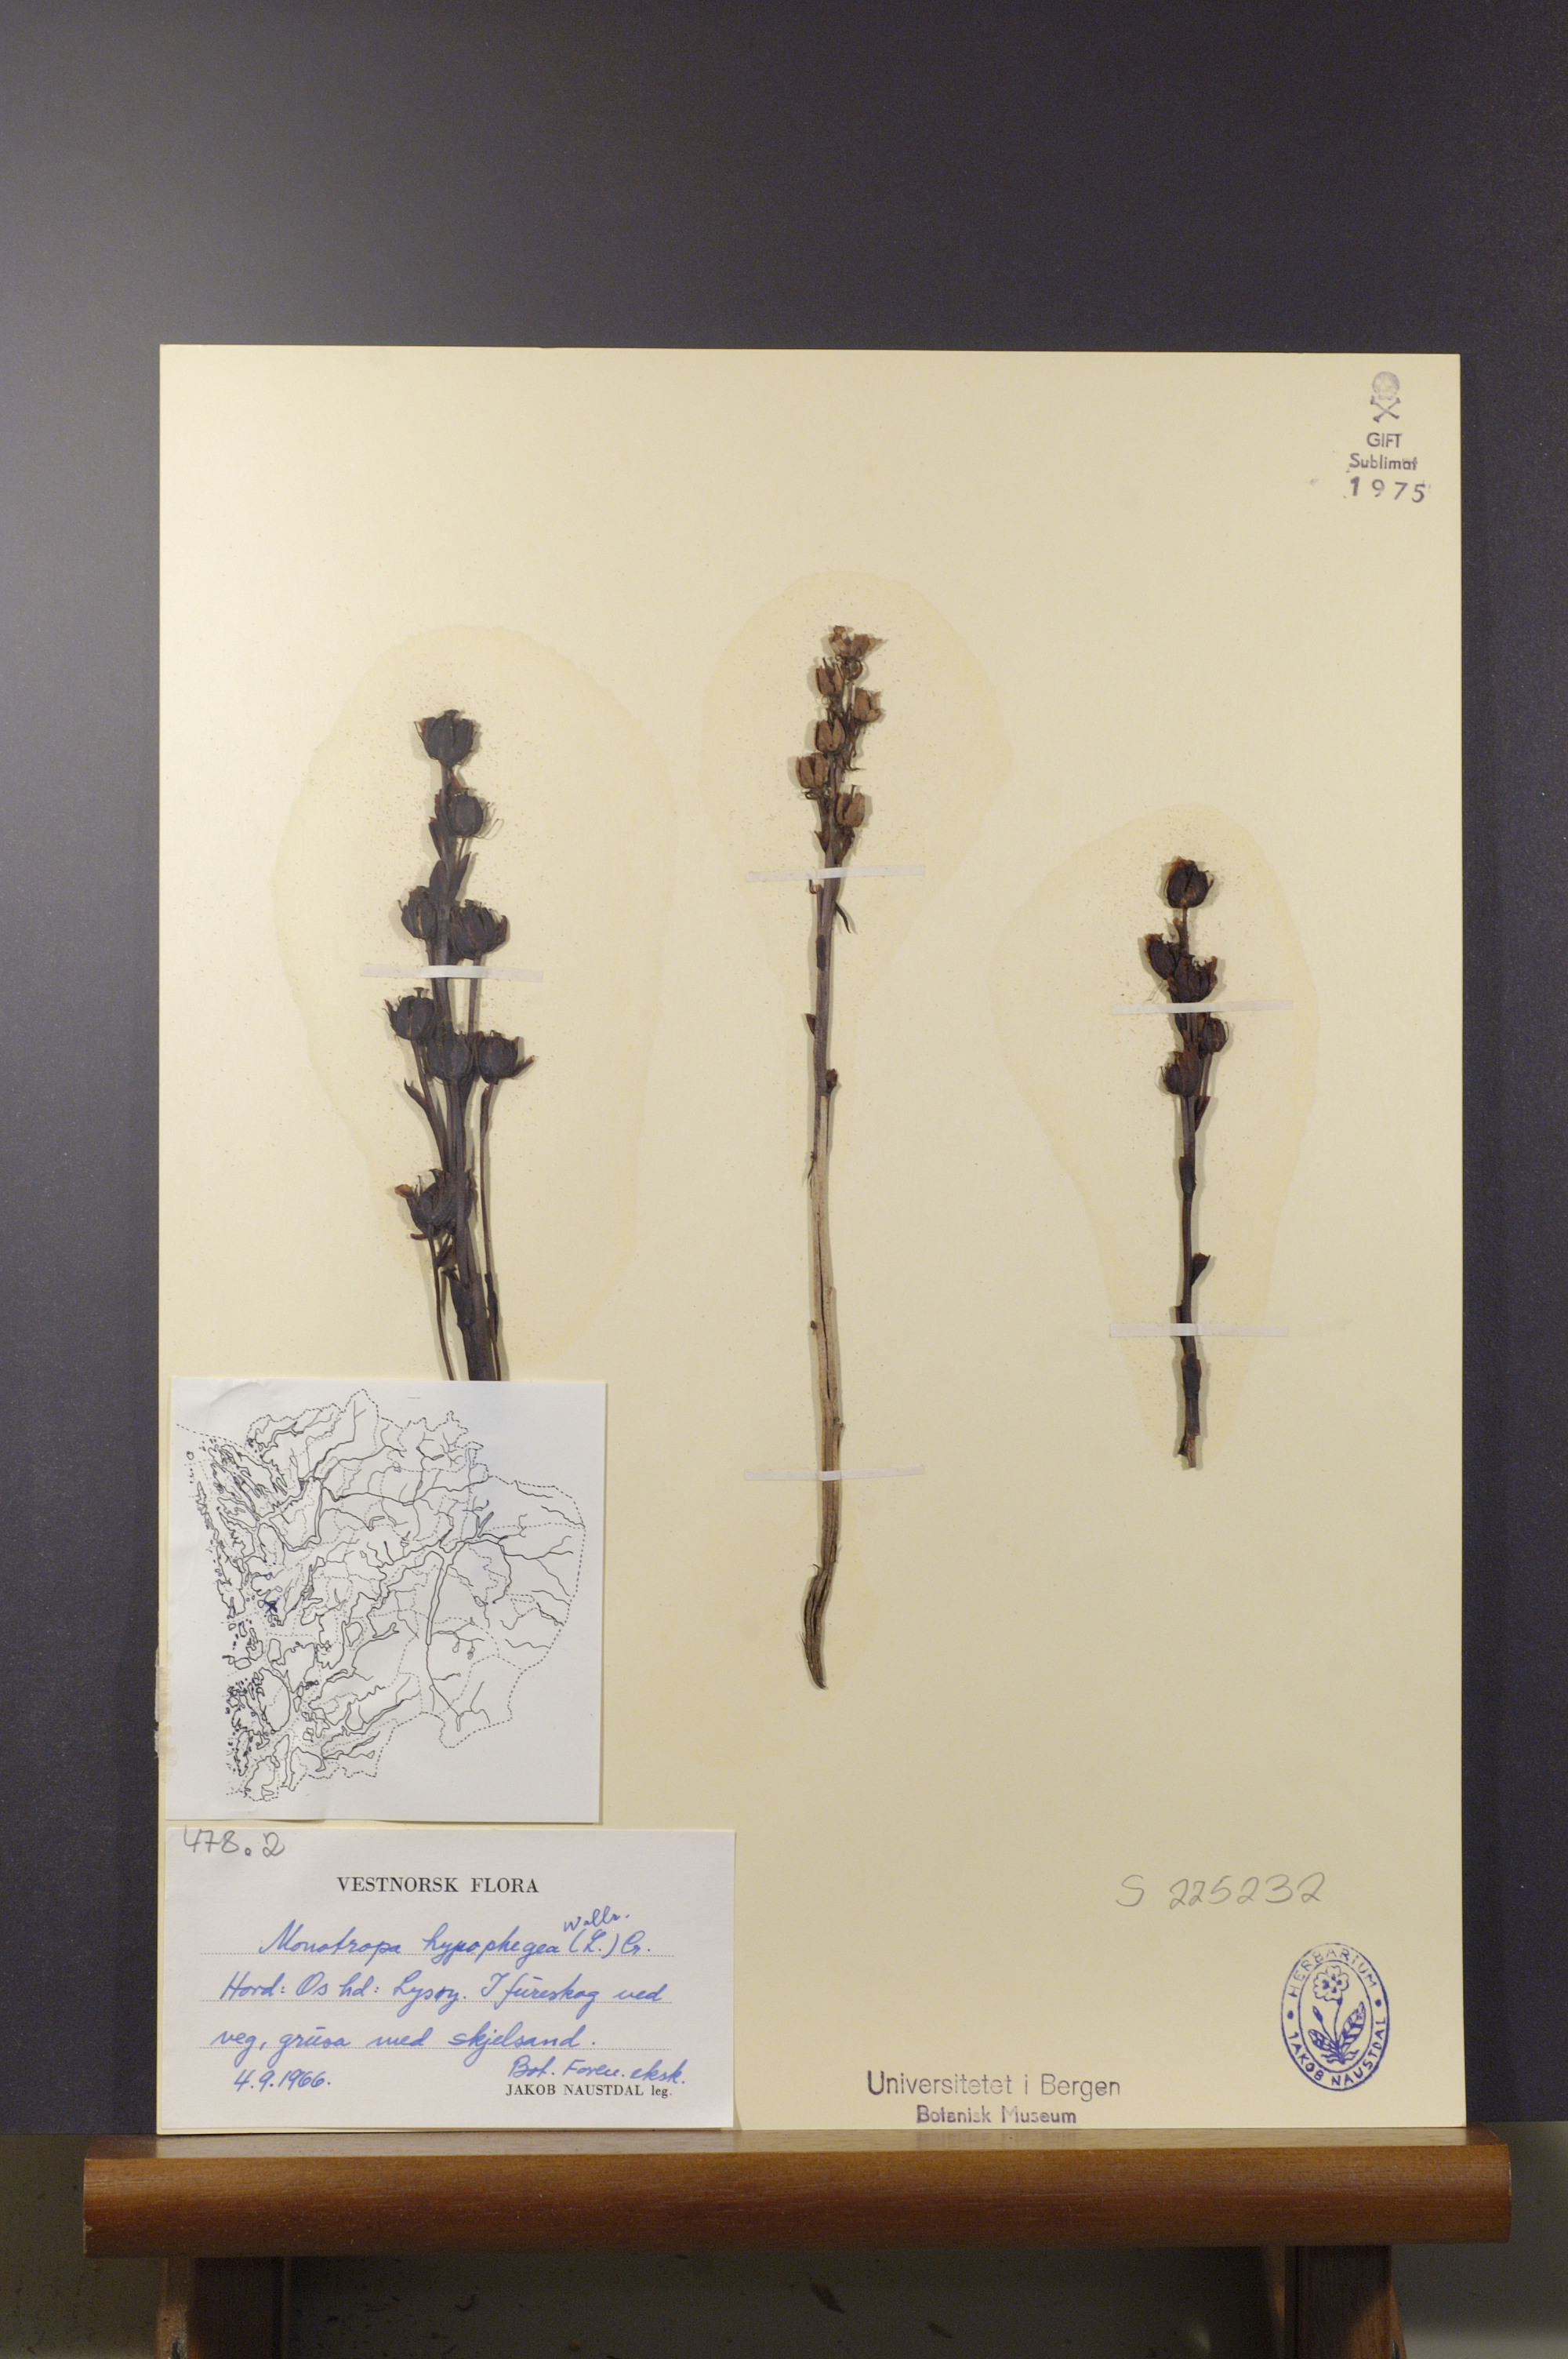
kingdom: Plantae
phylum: Tracheophyta
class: Magnoliopsida
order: Ericales
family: Ericaceae
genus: Hypopitys
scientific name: Hypopitys hypophegea
